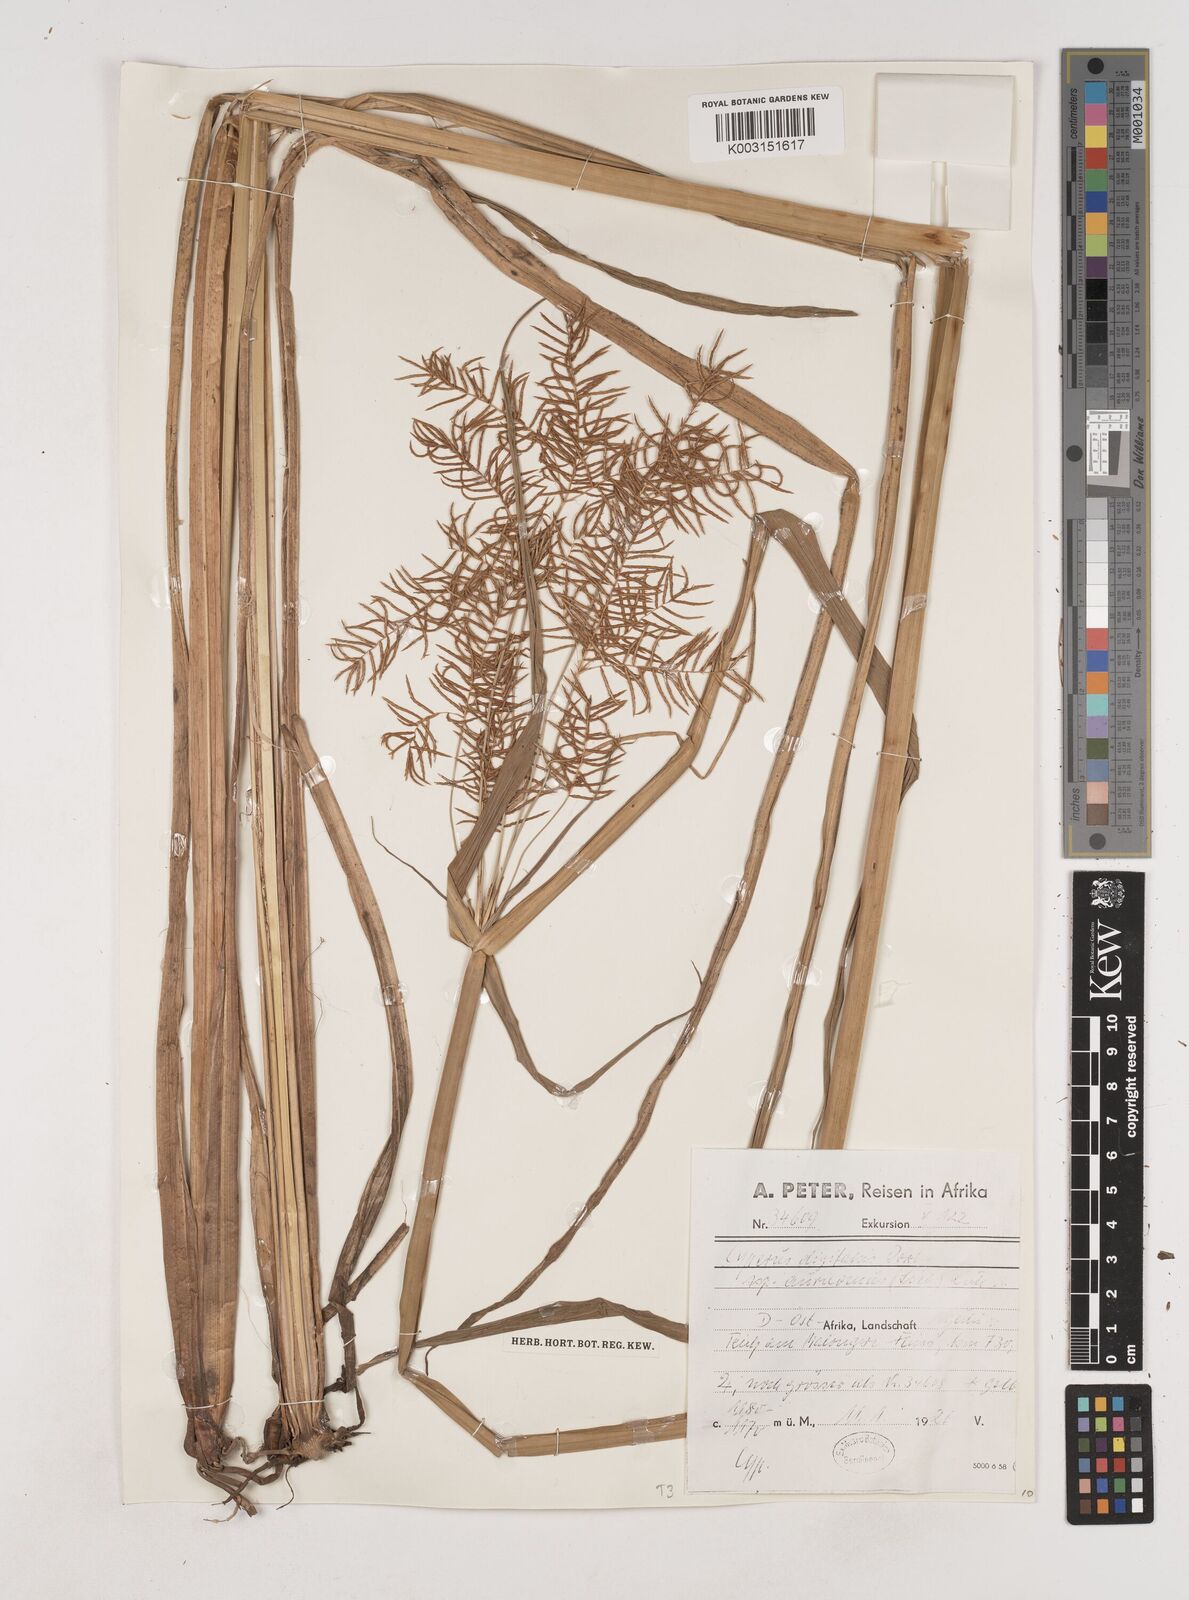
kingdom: Plantae
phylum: Tracheophyta
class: Liliopsida
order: Poales
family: Cyperaceae
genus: Cyperus
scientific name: Cyperus digitatus
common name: Finger flatsedge
